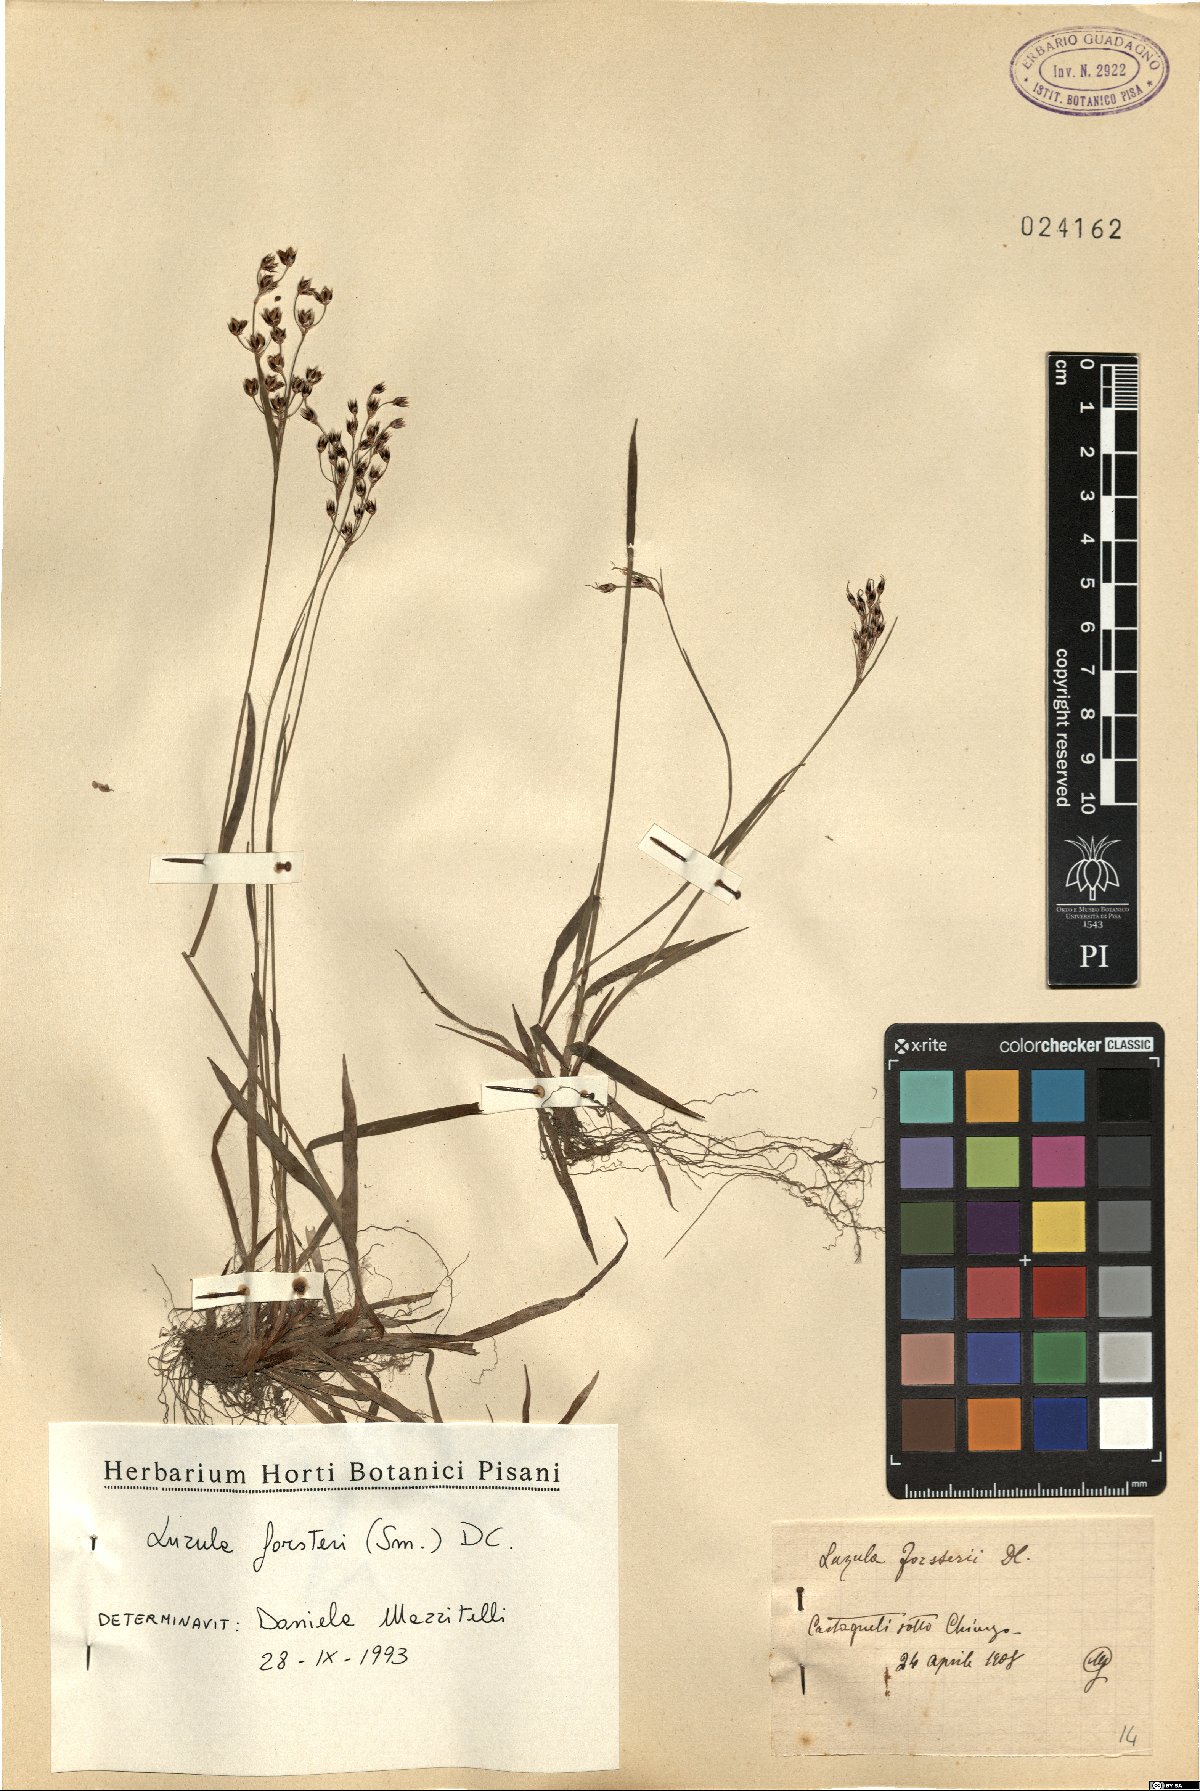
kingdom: Plantae
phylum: Tracheophyta
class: Liliopsida
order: Poales
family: Juncaceae
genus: Luzula
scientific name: Luzula forsteri
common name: Southern wood-rush
